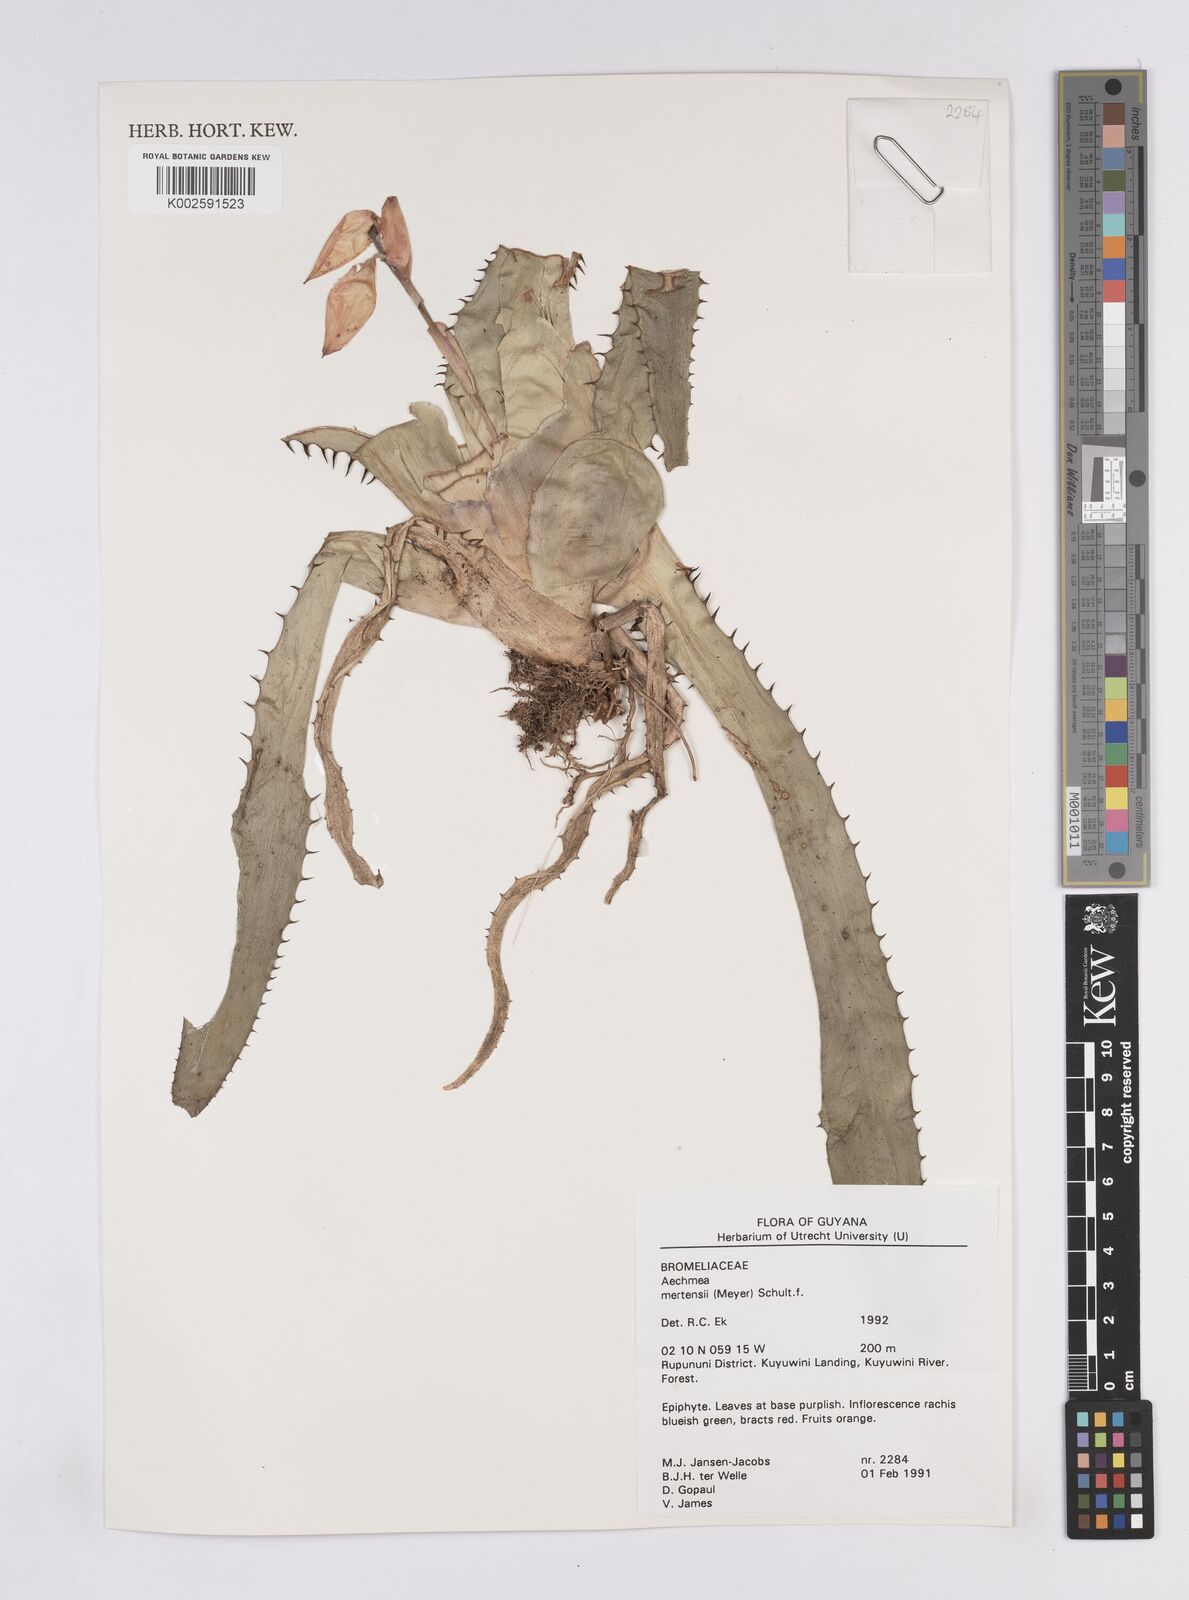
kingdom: Plantae
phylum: Tracheophyta
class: Liliopsida
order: Poales
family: Bromeliaceae
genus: Aechmea
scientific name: Aechmea mertensii
